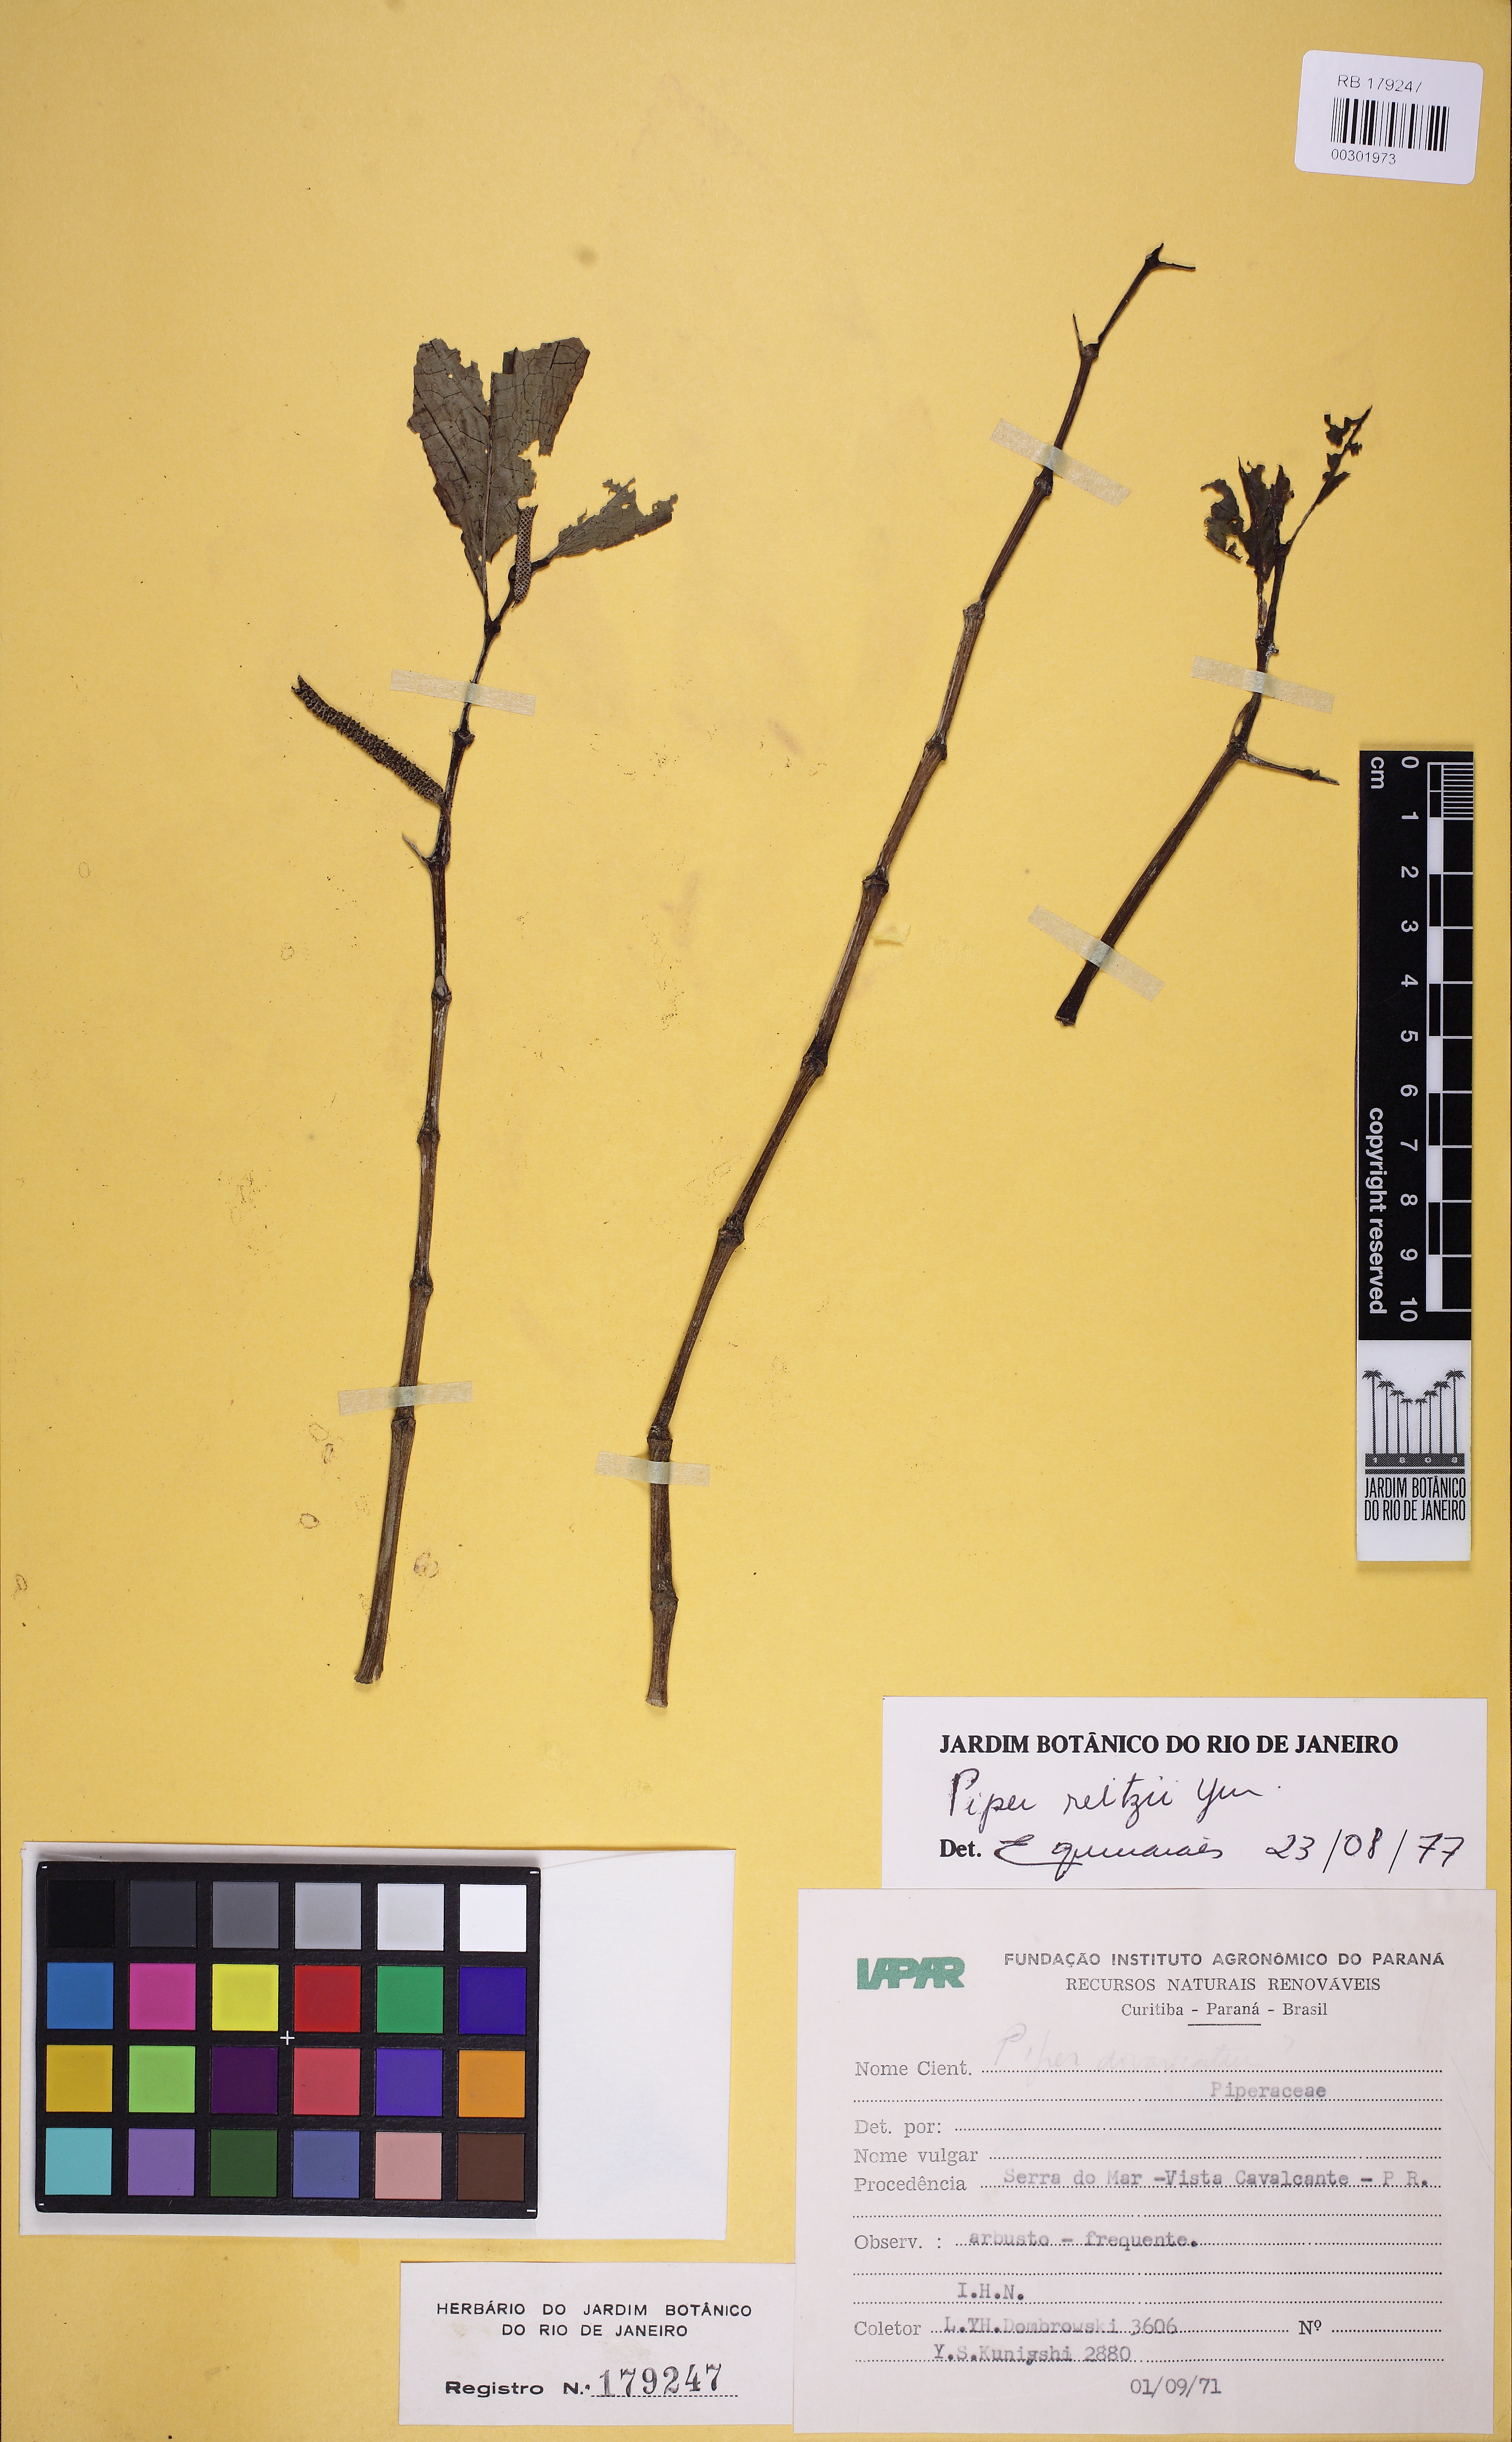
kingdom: Plantae
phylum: Tracheophyta
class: Magnoliopsida
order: Piperales
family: Piperaceae
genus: Piper
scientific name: Piper reitzii
